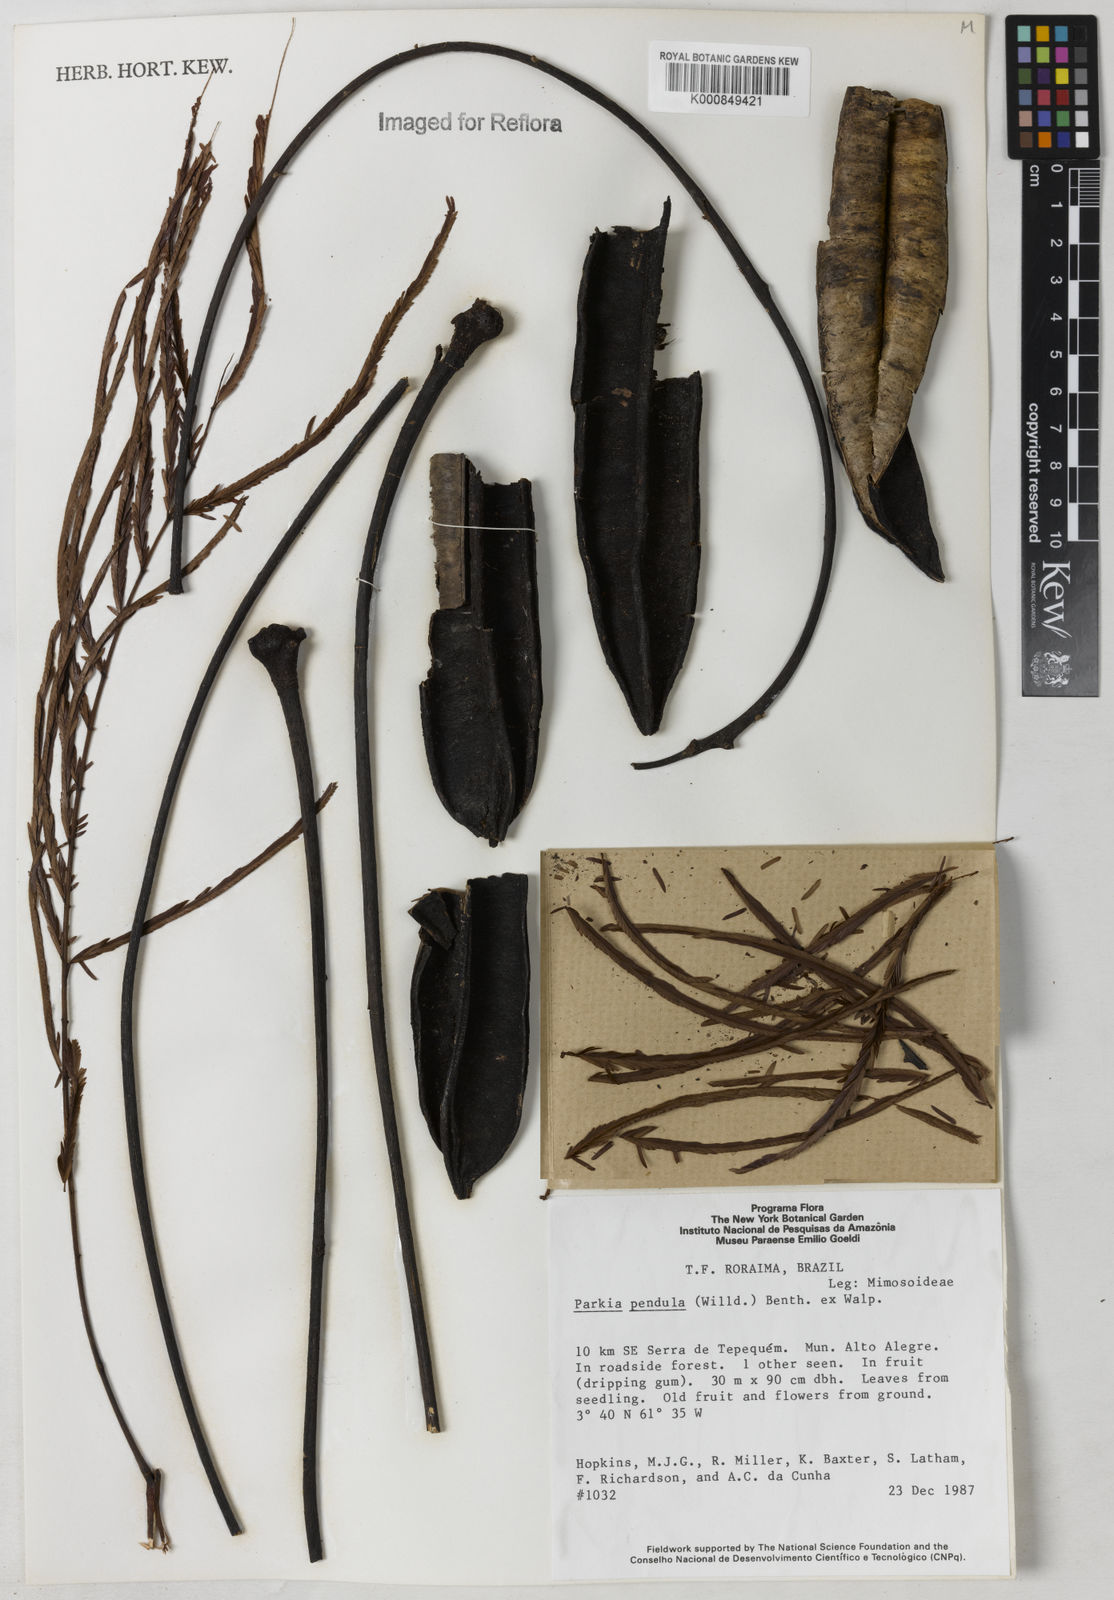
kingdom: Plantae
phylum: Tracheophyta
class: Magnoliopsida
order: Fabales
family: Fabaceae
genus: Parkia
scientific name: Parkia
